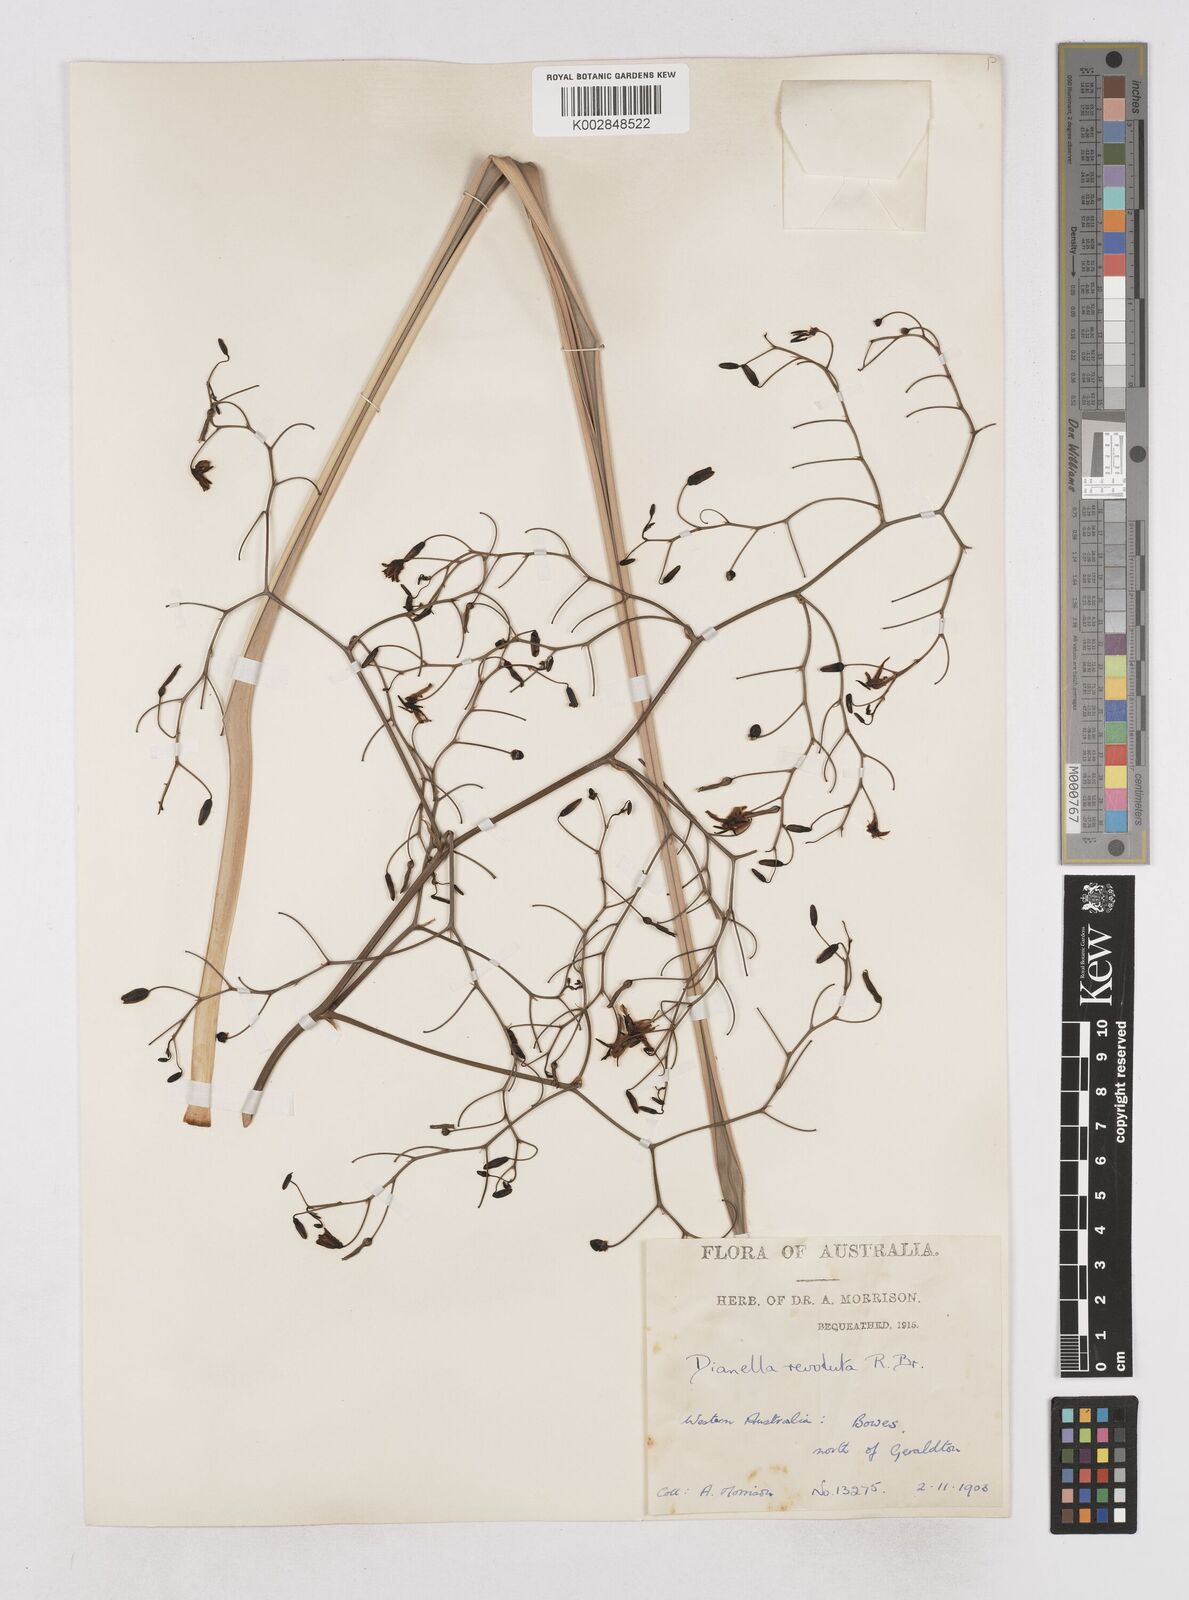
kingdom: Plantae
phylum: Tracheophyta
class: Liliopsida
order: Asparagales
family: Asphodelaceae
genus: Dianella
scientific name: Dianella revoluta
